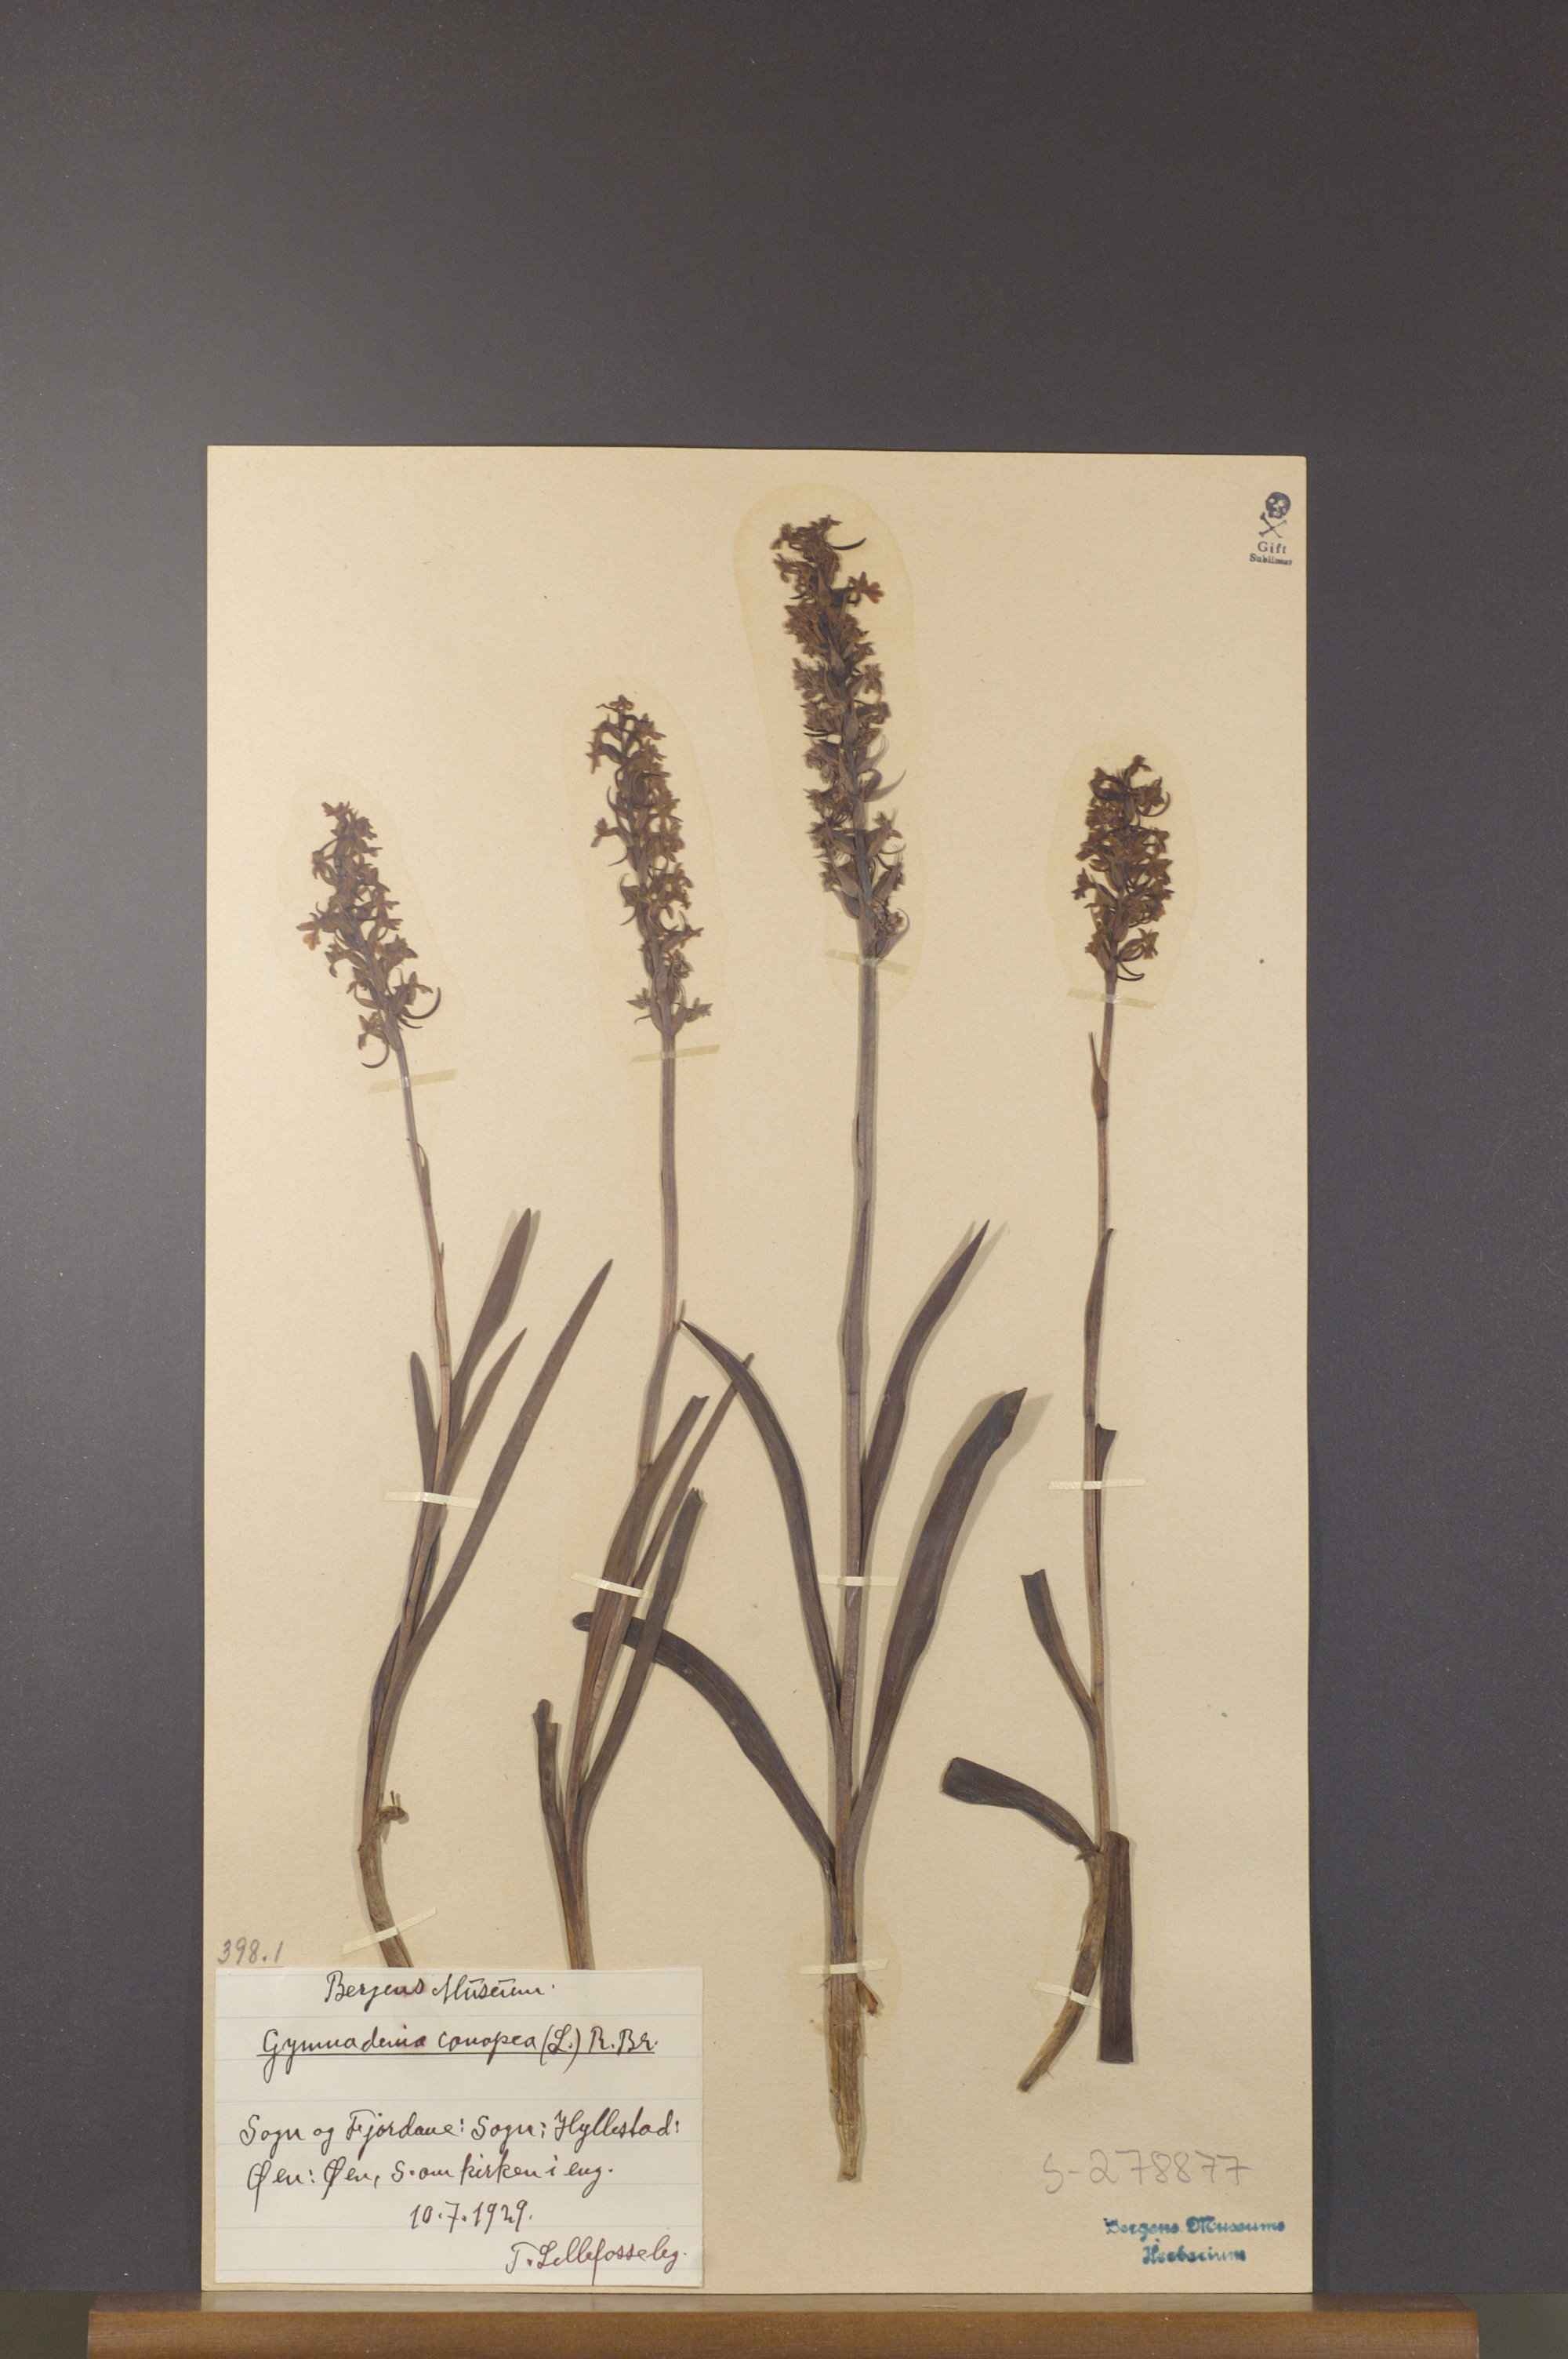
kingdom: Plantae
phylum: Tracheophyta
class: Liliopsida
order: Asparagales
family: Orchidaceae
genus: Gymnadenia
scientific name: Gymnadenia conopsea
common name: Fragrant orchid
